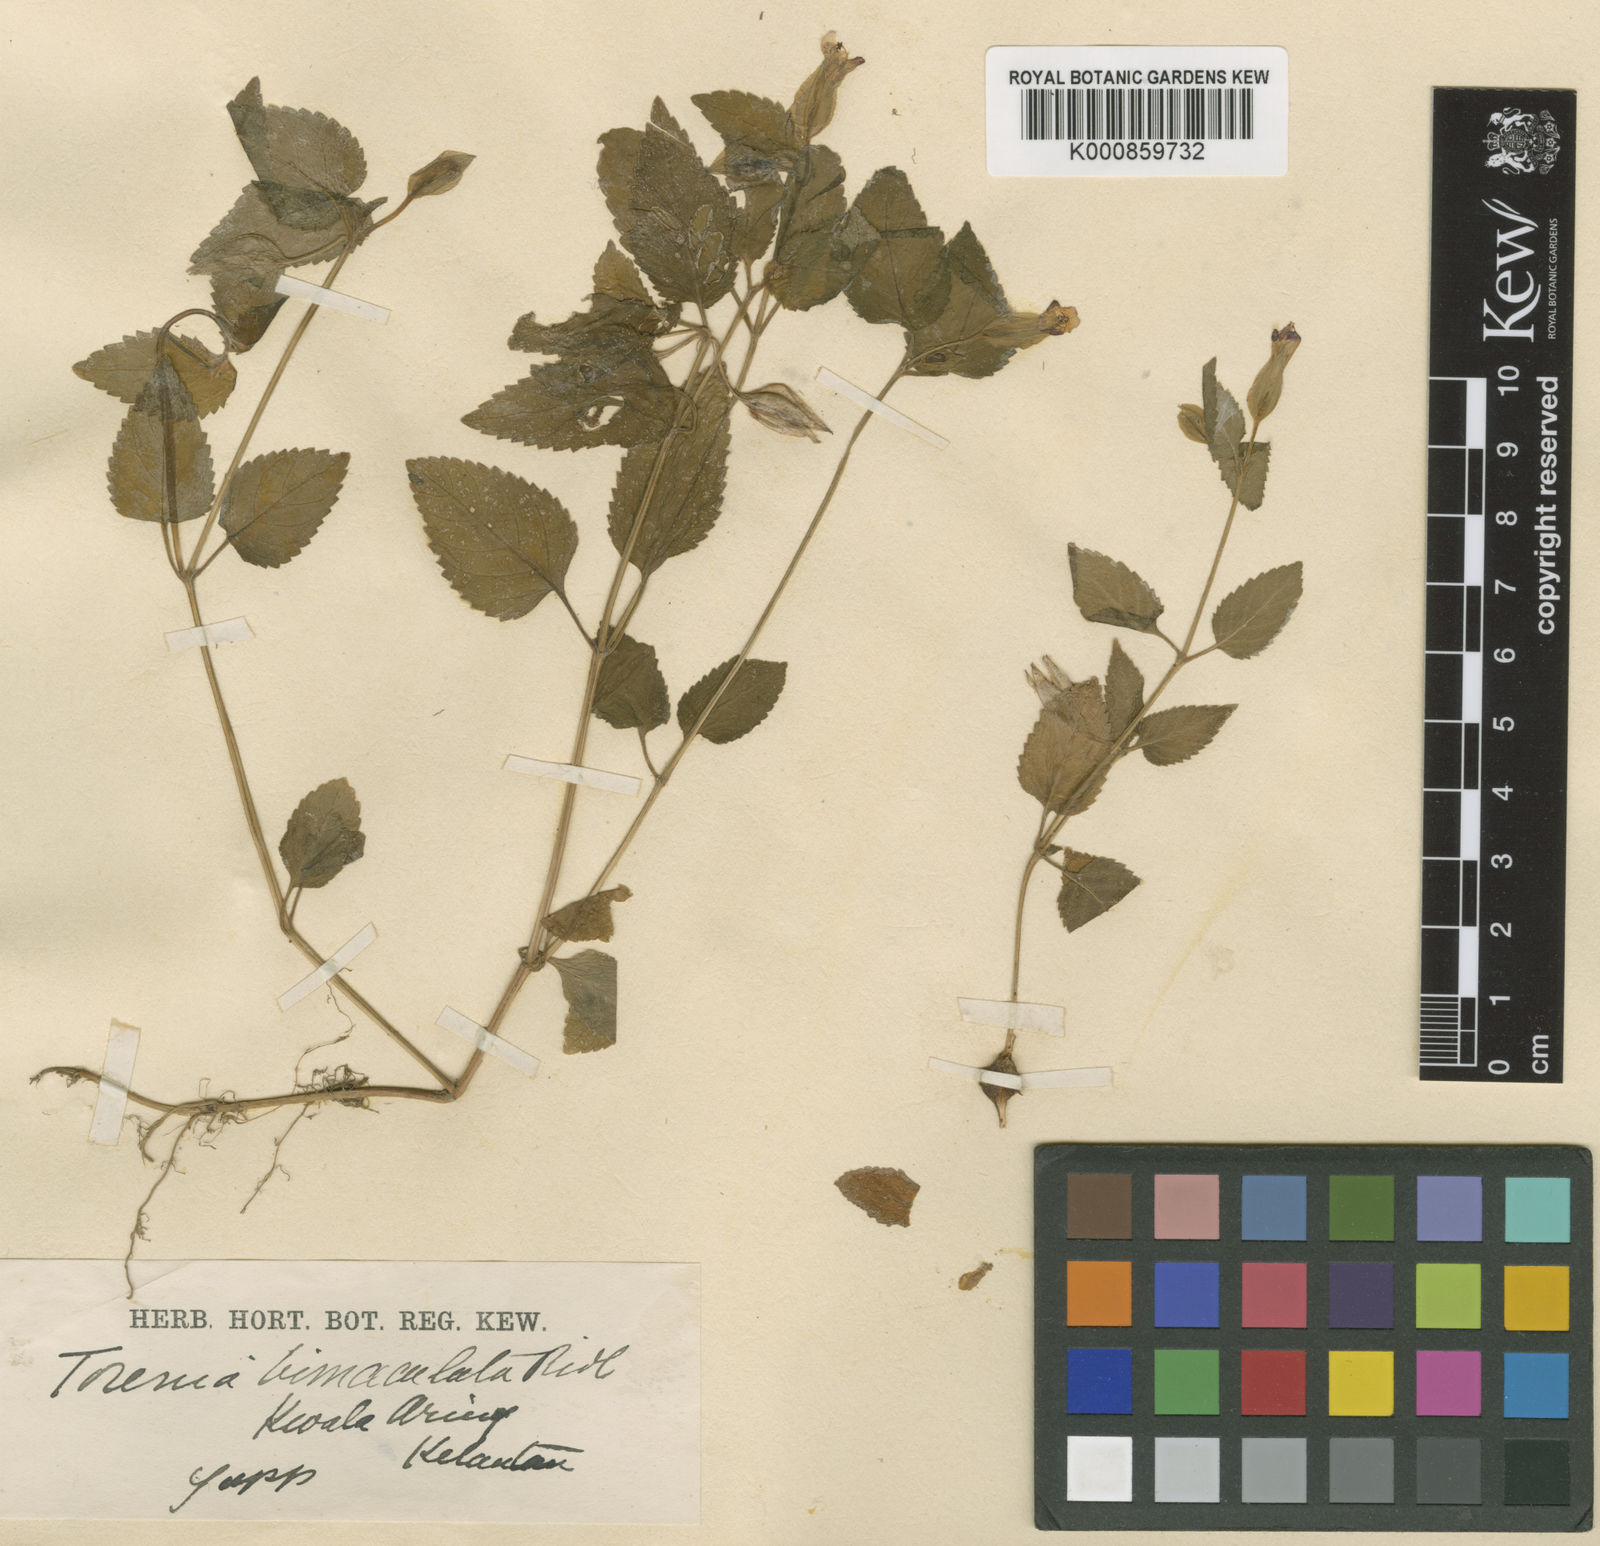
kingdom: Plantae
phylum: Tracheophyta
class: Magnoliopsida
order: Lamiales
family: Linderniaceae
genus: Torenia
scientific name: Torenia bimaculata
